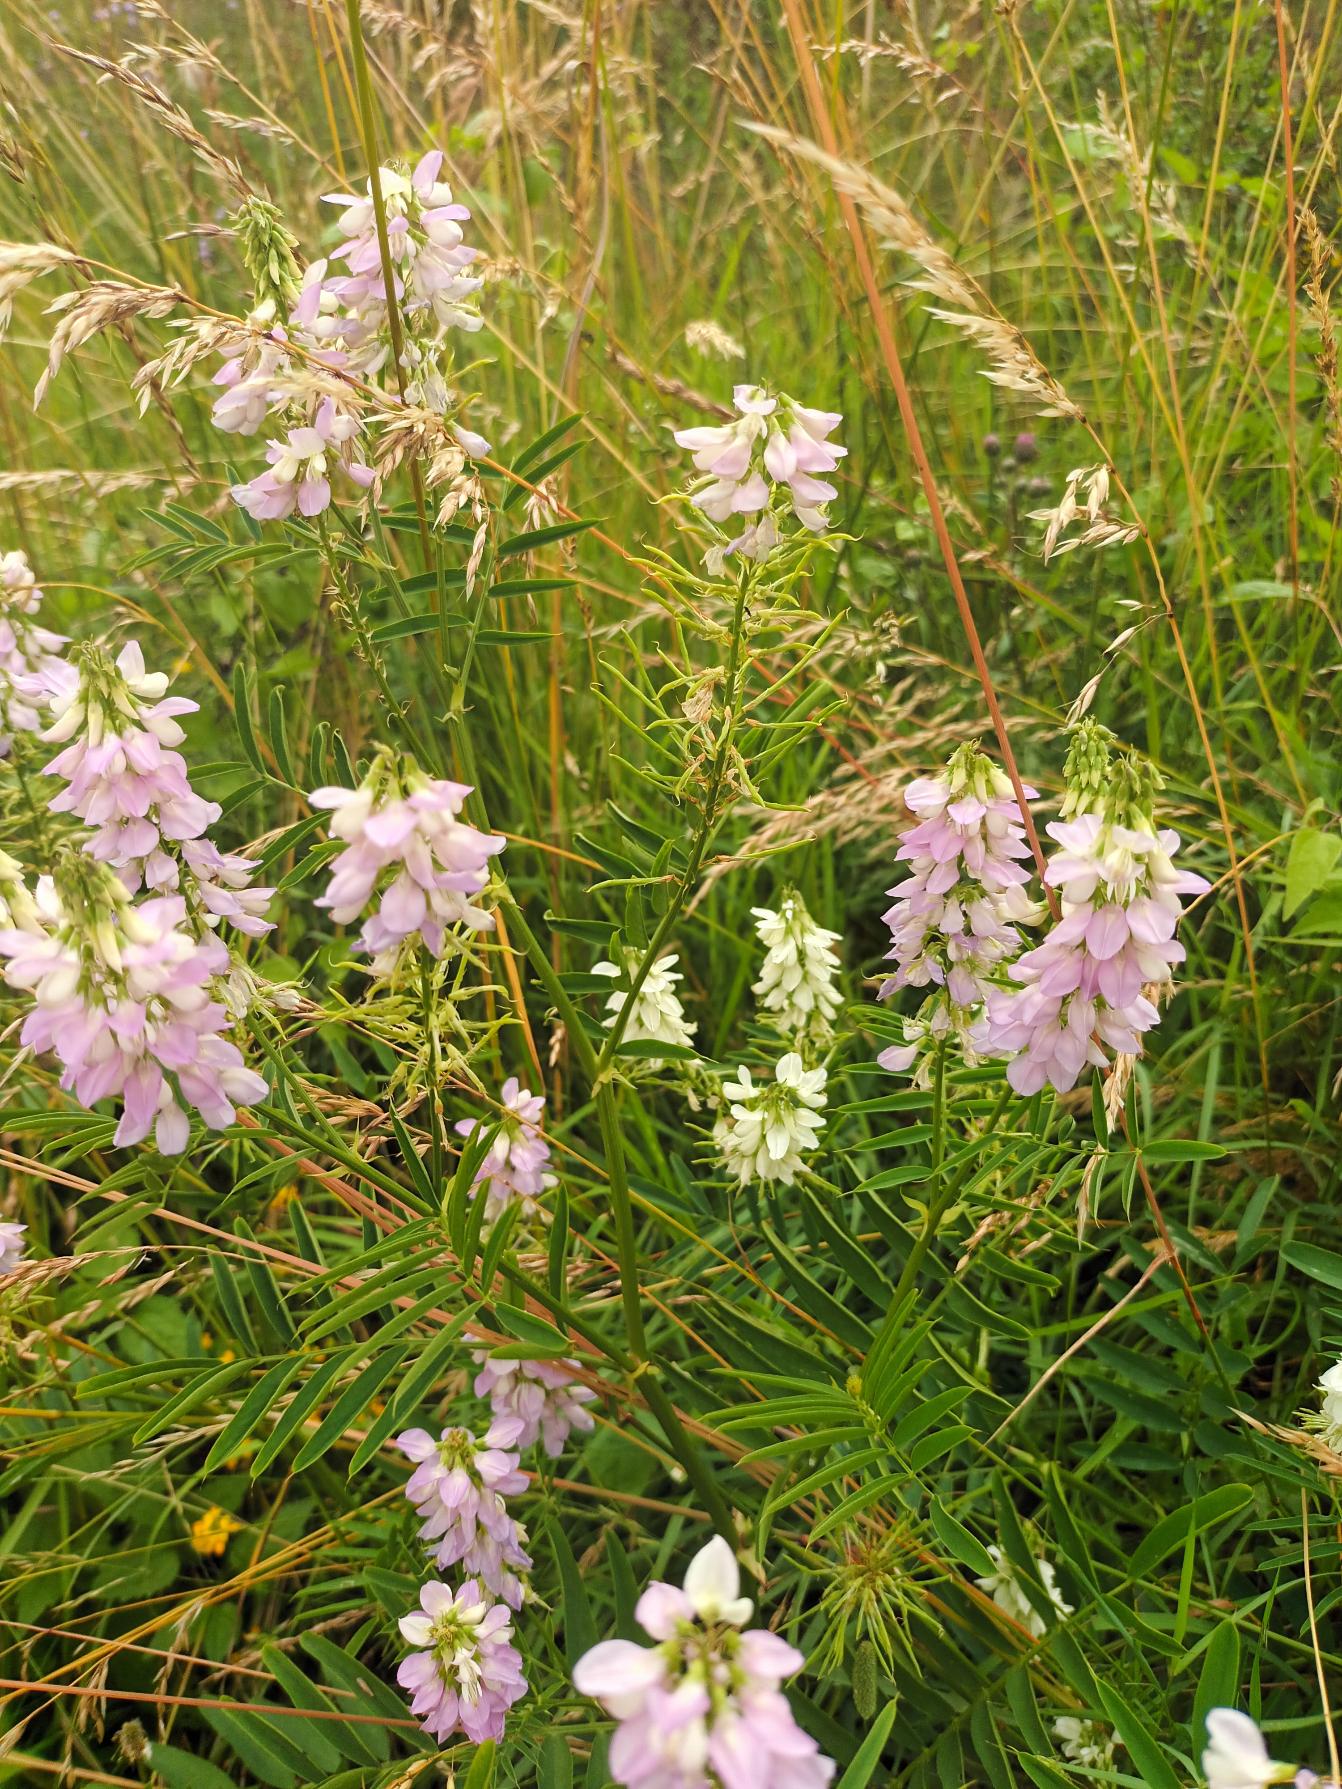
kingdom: Plantae
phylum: Tracheophyta
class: Magnoliopsida
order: Fabales
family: Fabaceae
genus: Galega
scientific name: Galega officinalis
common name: Læge-stregbælg
